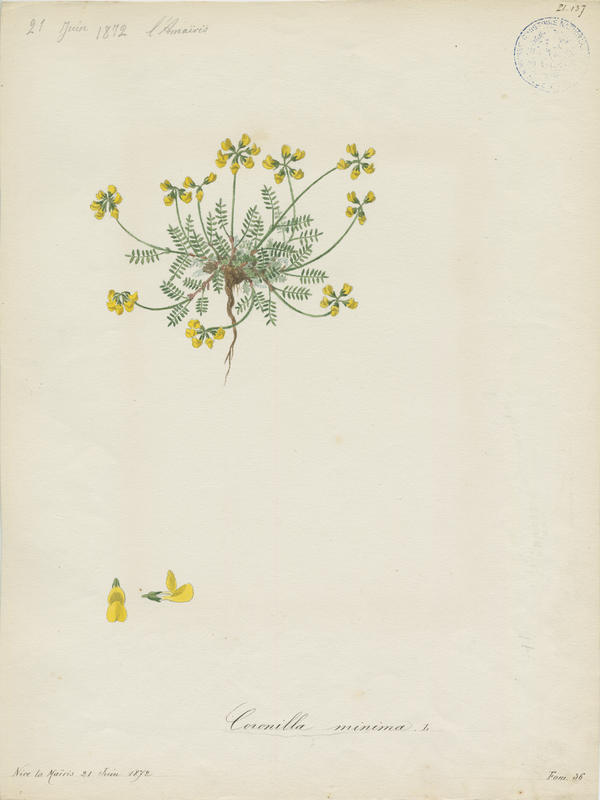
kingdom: Plantae
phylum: Tracheophyta
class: Magnoliopsida
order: Fabales
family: Fabaceae
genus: Coronilla
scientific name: Coronilla minima
